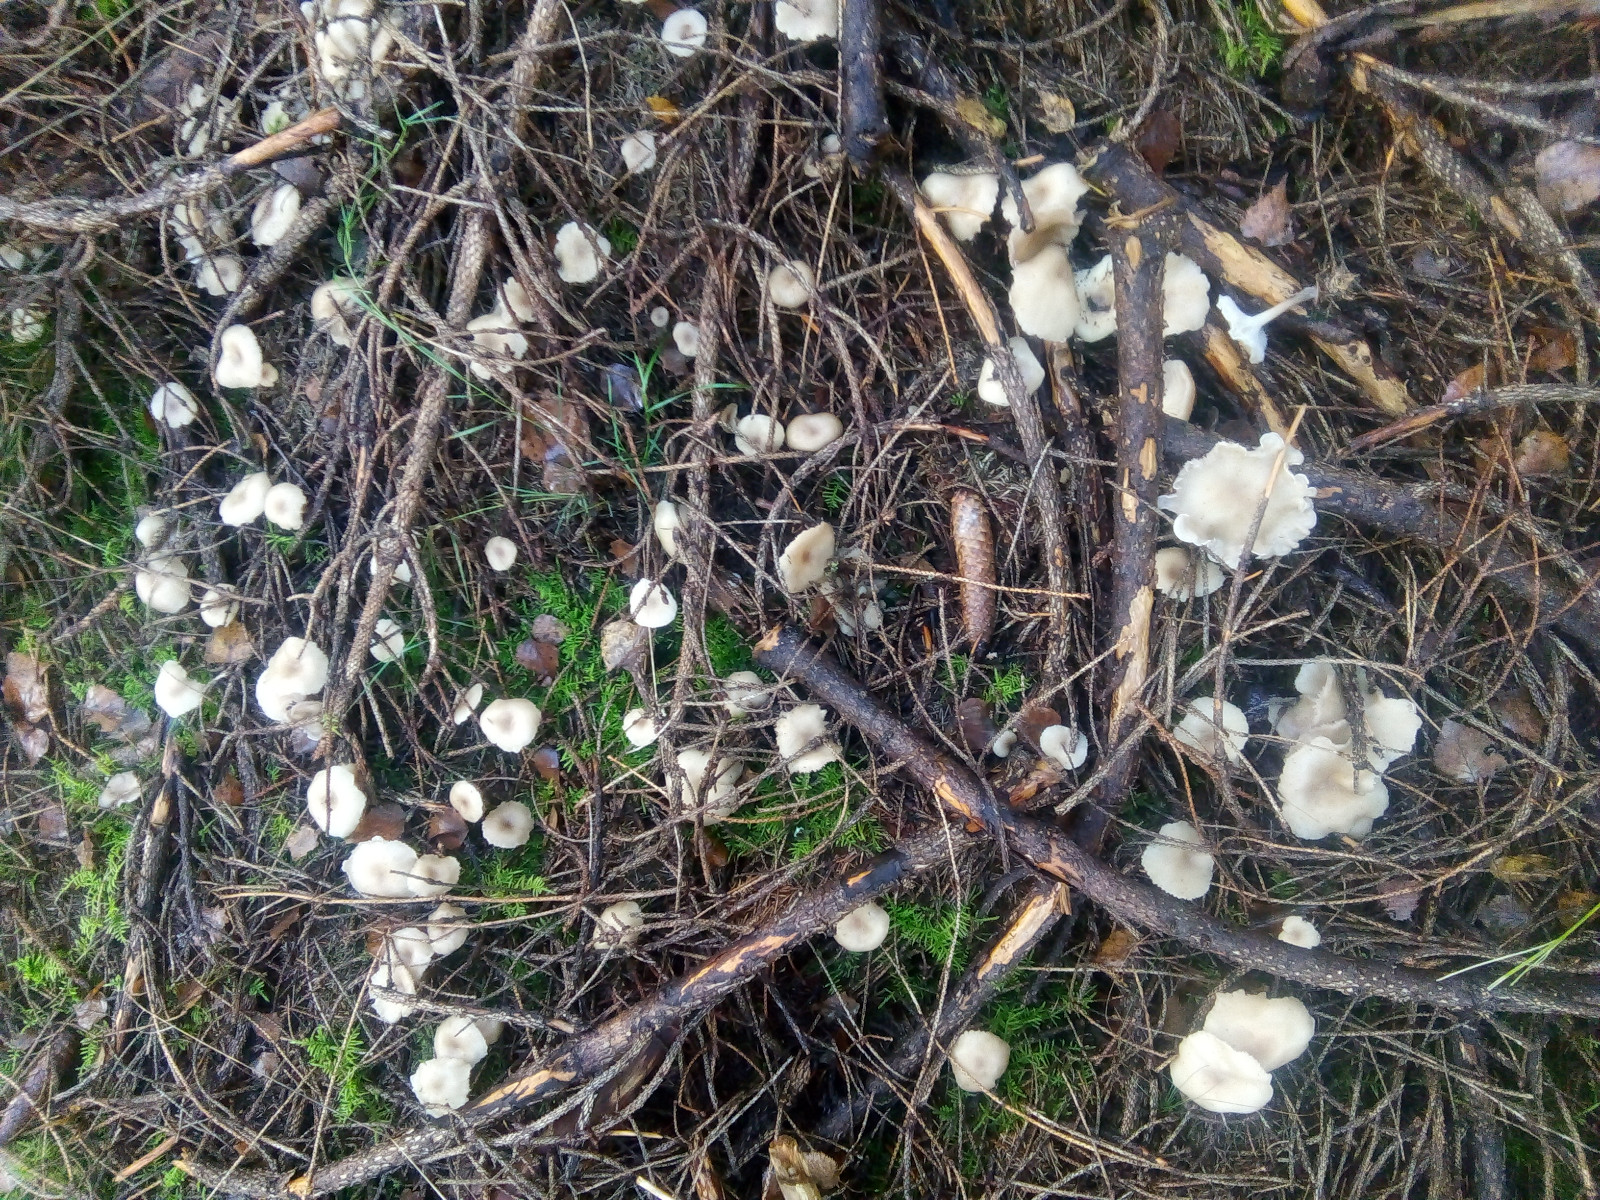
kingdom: Fungi
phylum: Basidiomycota
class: Agaricomycetes
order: Agaricales
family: Tricholomataceae
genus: Clitocybe
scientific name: Clitocybe metachroa
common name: grå tragthat
